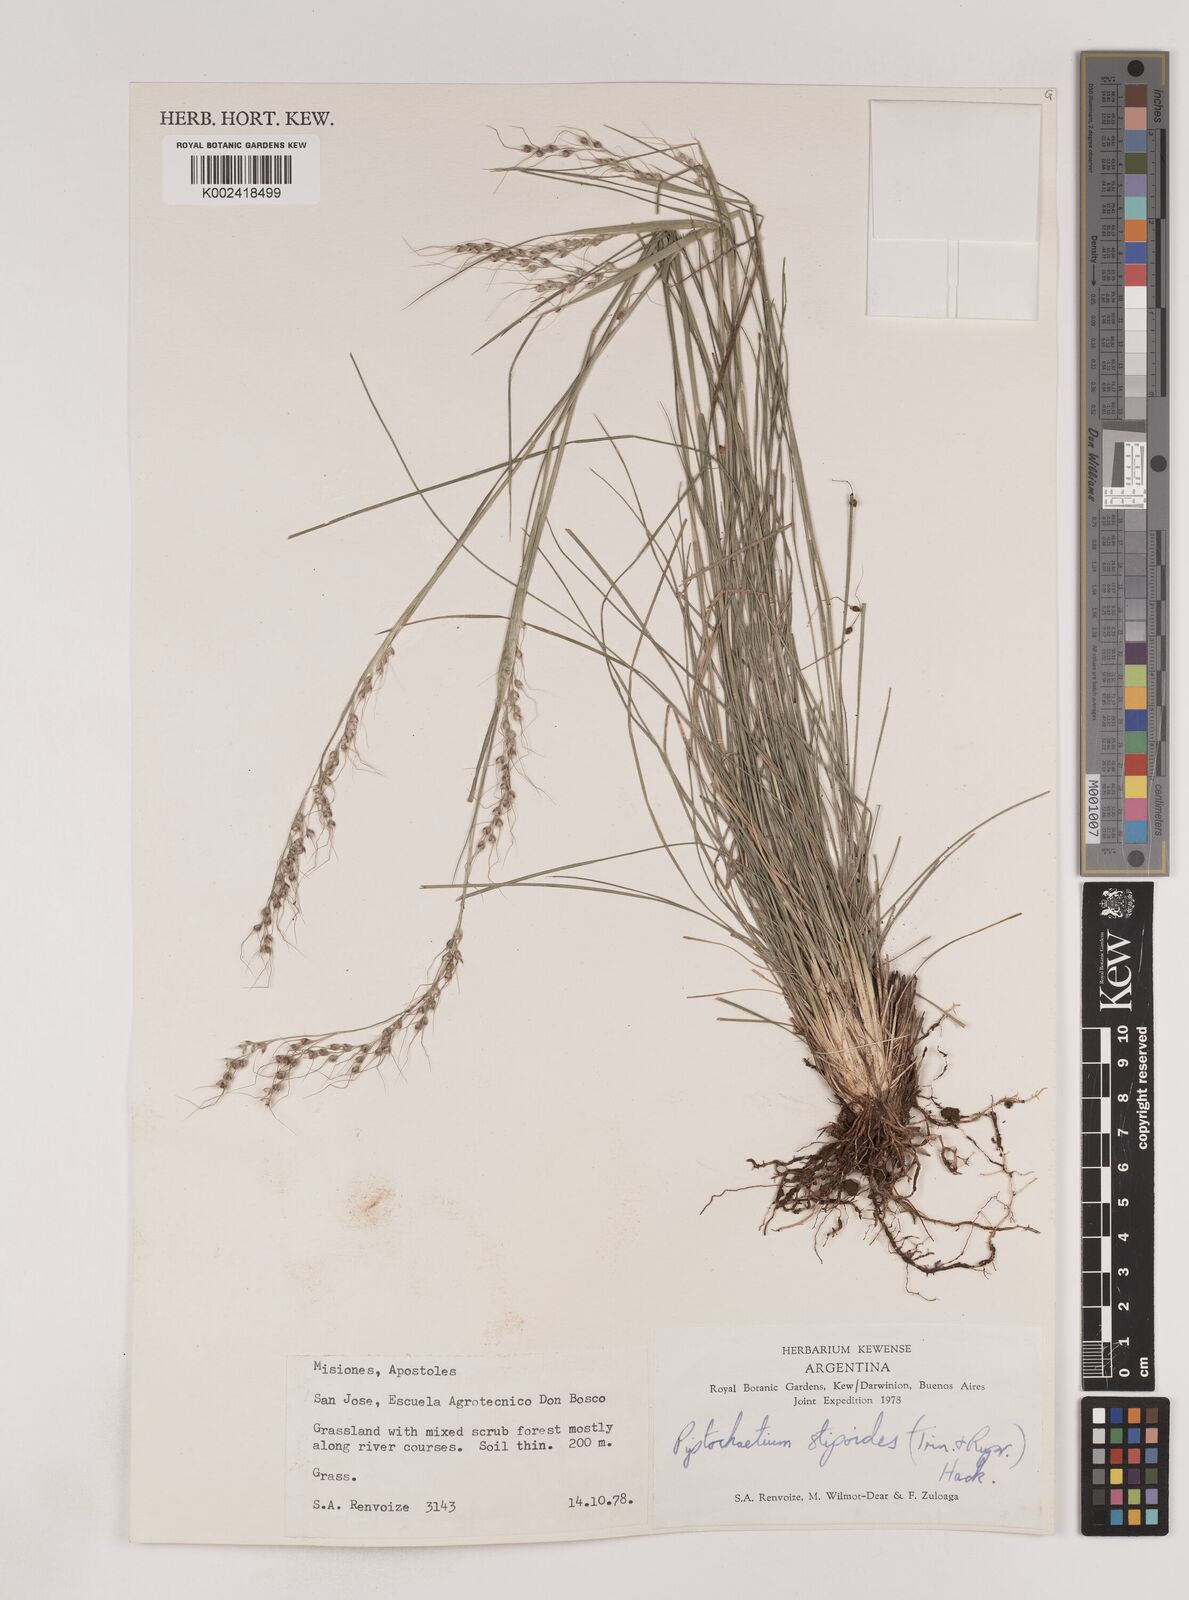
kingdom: Plantae
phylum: Tracheophyta
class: Liliopsida
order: Poales
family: Poaceae
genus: Piptochaetium
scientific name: Piptochaetium stipoides
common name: Purple speargrass
